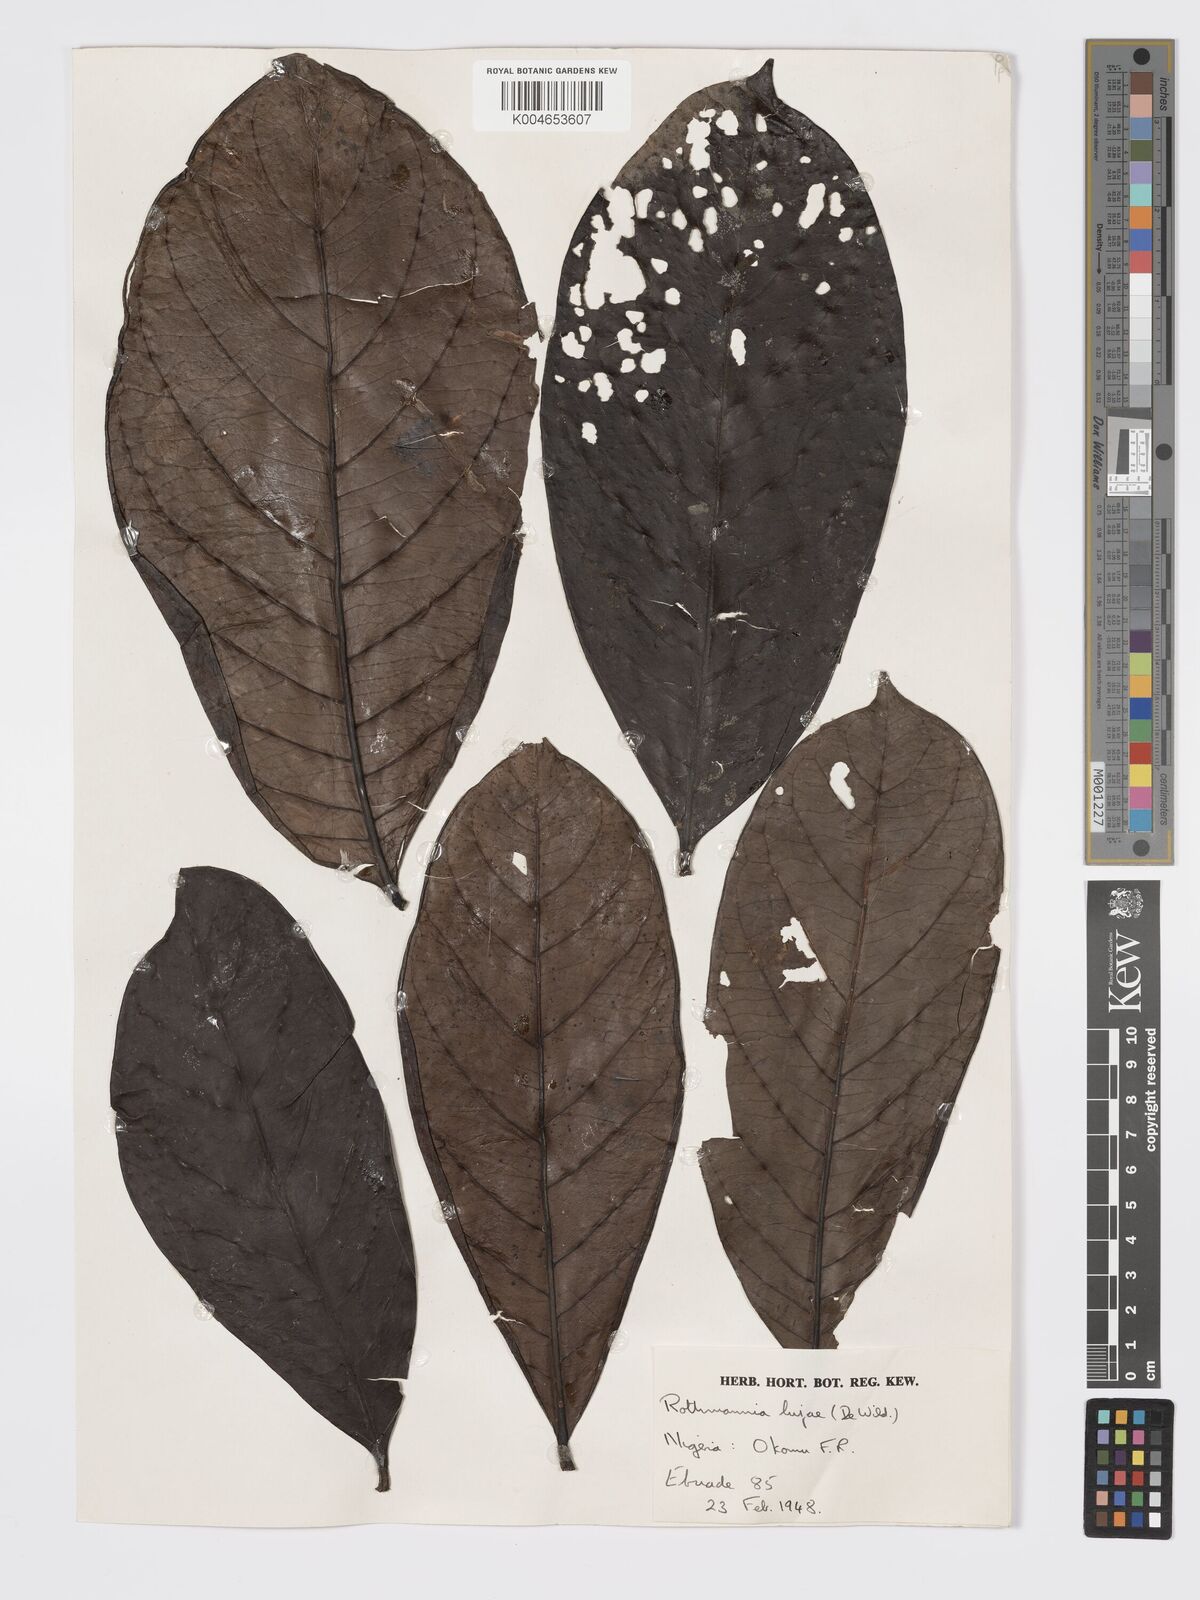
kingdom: Plantae
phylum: Tracheophyta
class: Magnoliopsida
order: Gentianales
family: Rubiaceae
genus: Rothmannia
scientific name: Rothmannia lujae
